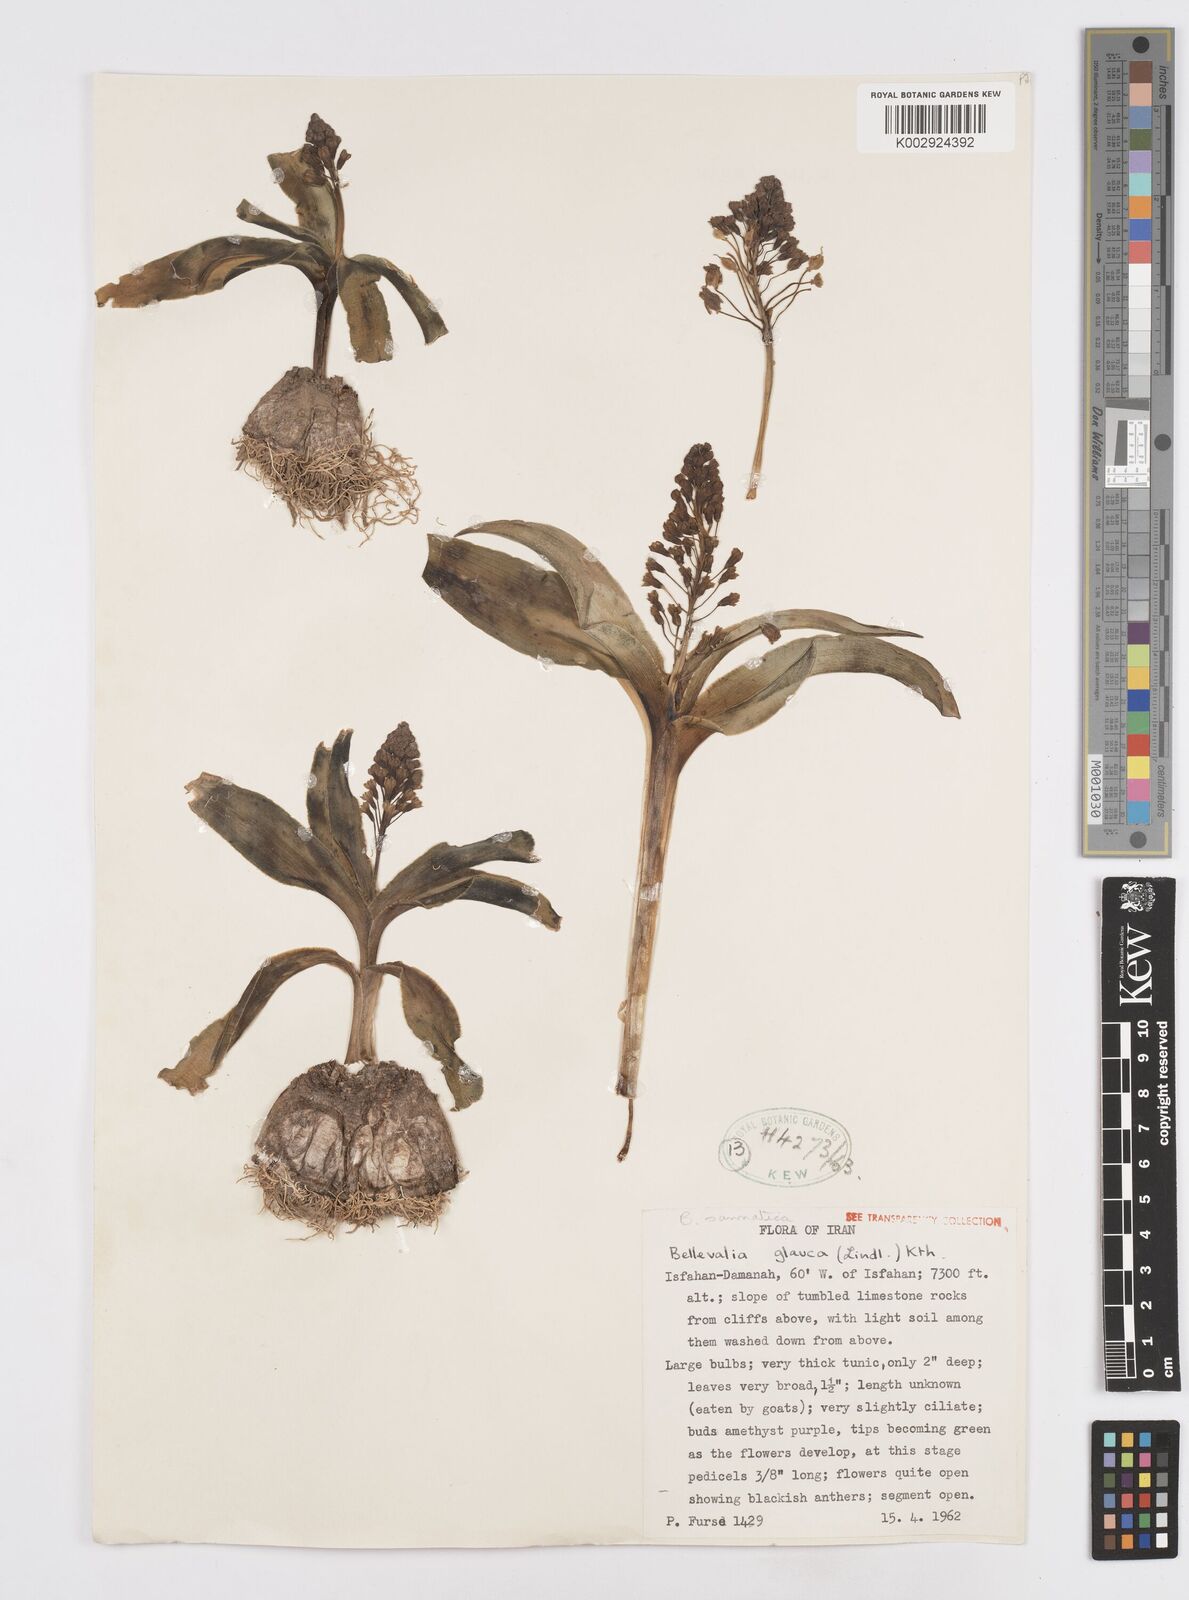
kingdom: Plantae
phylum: Tracheophyta
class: Liliopsida
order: Asparagales
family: Asparagaceae
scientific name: Asparagaceae
